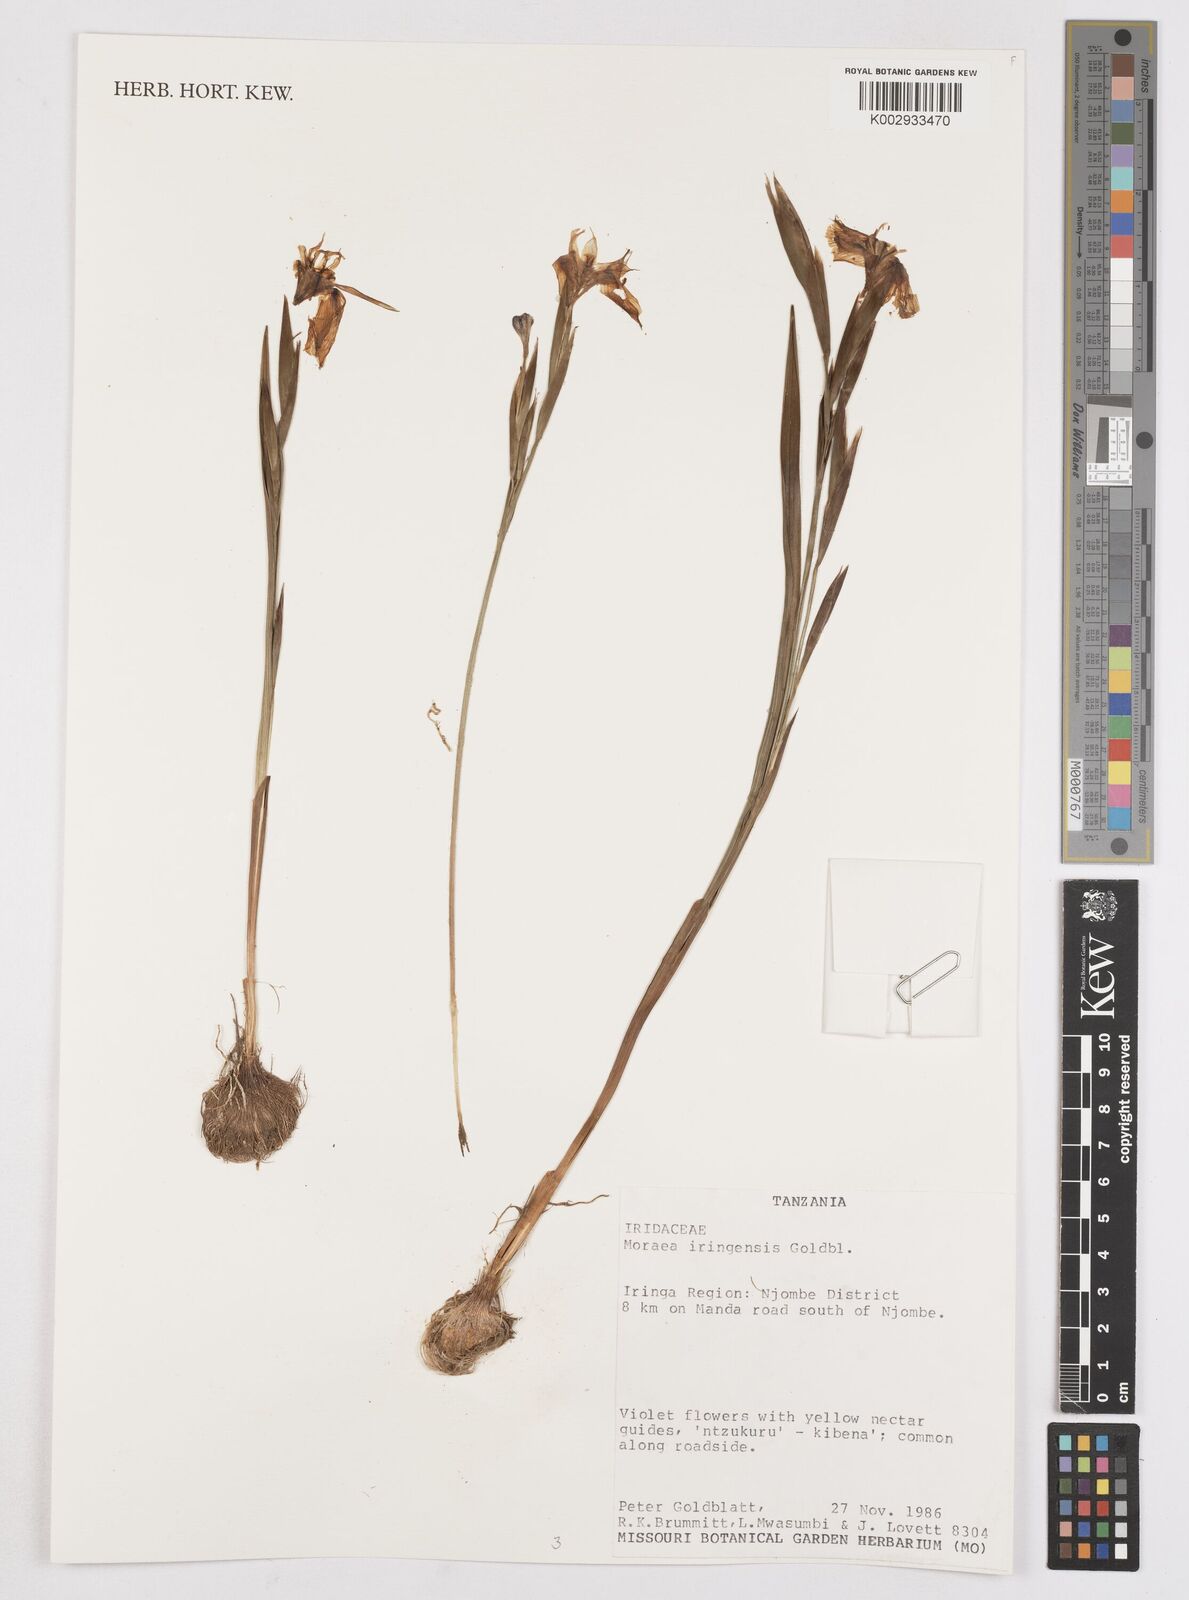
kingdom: Plantae
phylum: Tracheophyta
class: Liliopsida
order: Asparagales
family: Iridaceae
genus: Moraea
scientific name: Moraea iringensis
